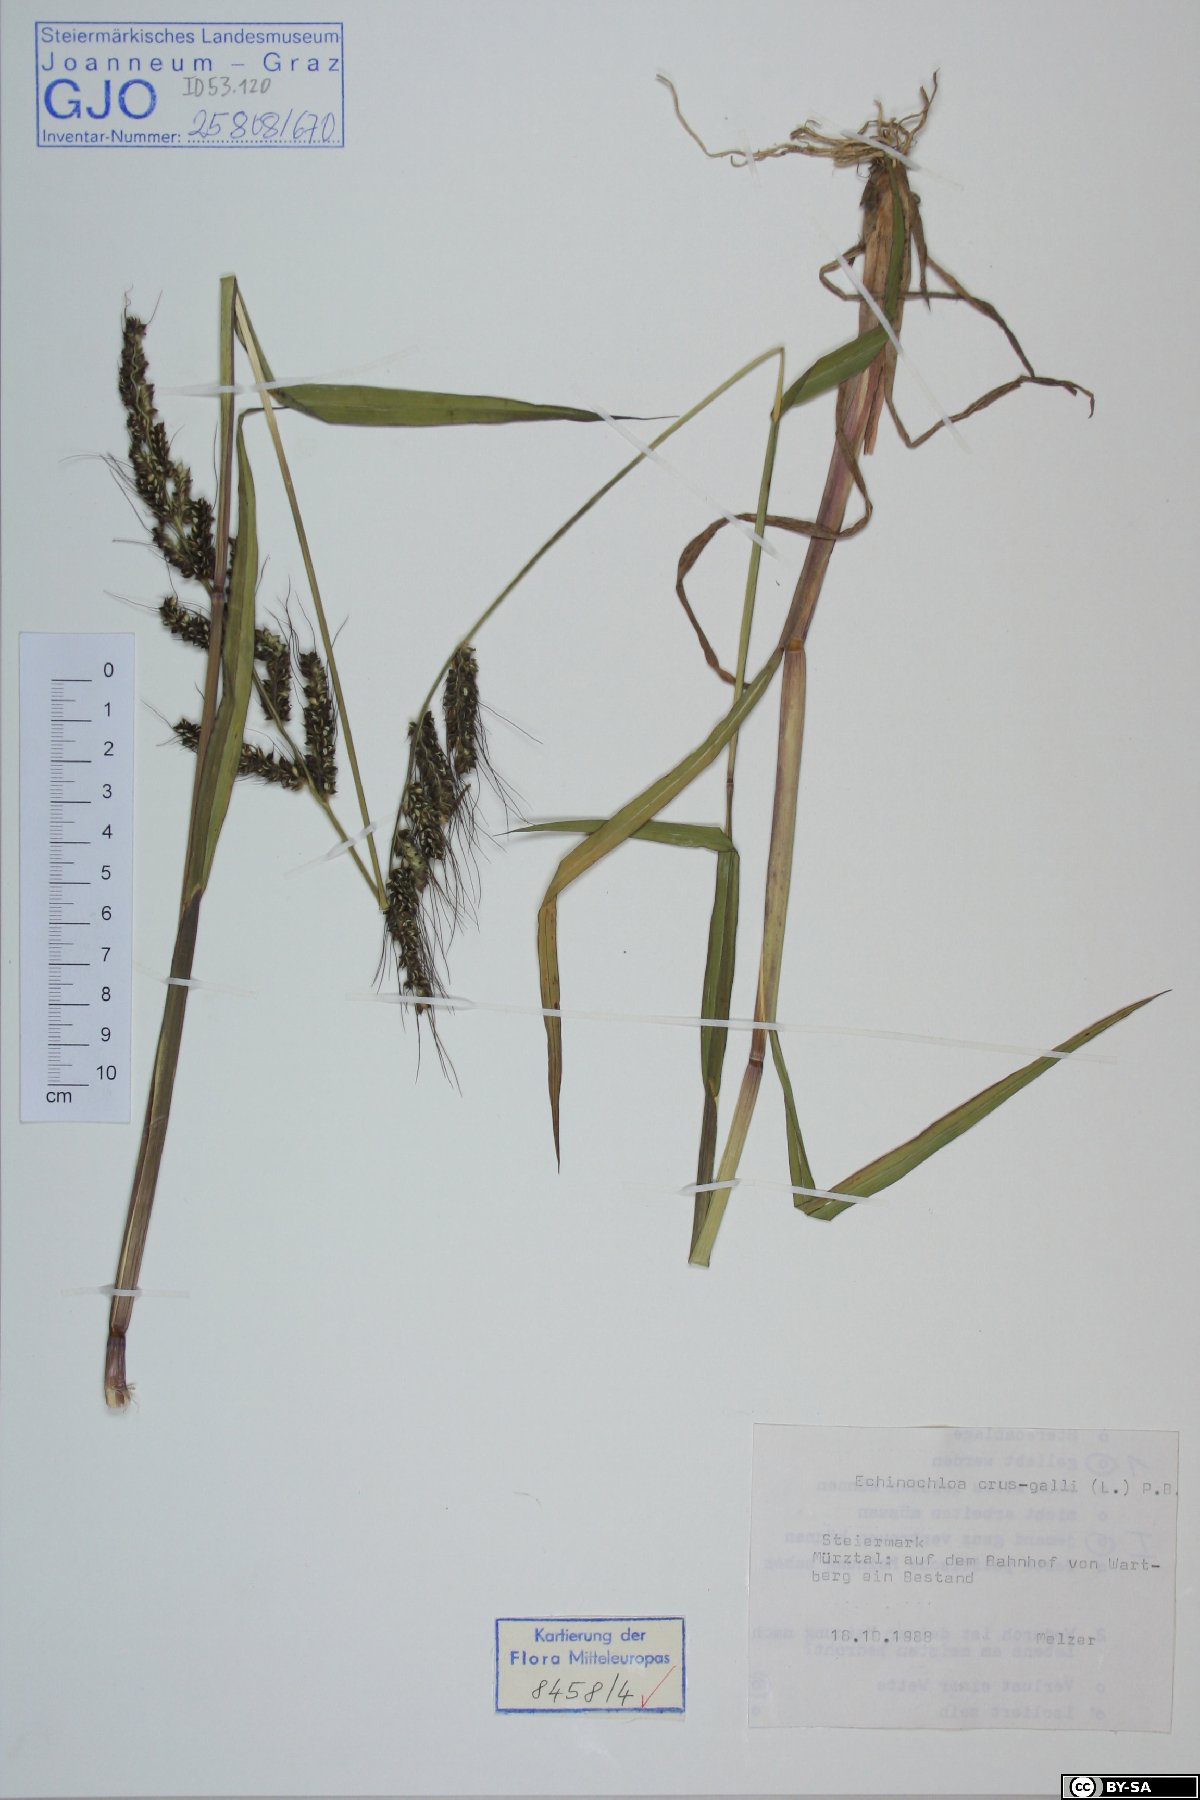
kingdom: Plantae
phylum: Tracheophyta
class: Liliopsida
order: Poales
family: Poaceae
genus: Echinochloa
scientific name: Echinochloa crus-galli
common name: Cockspur
